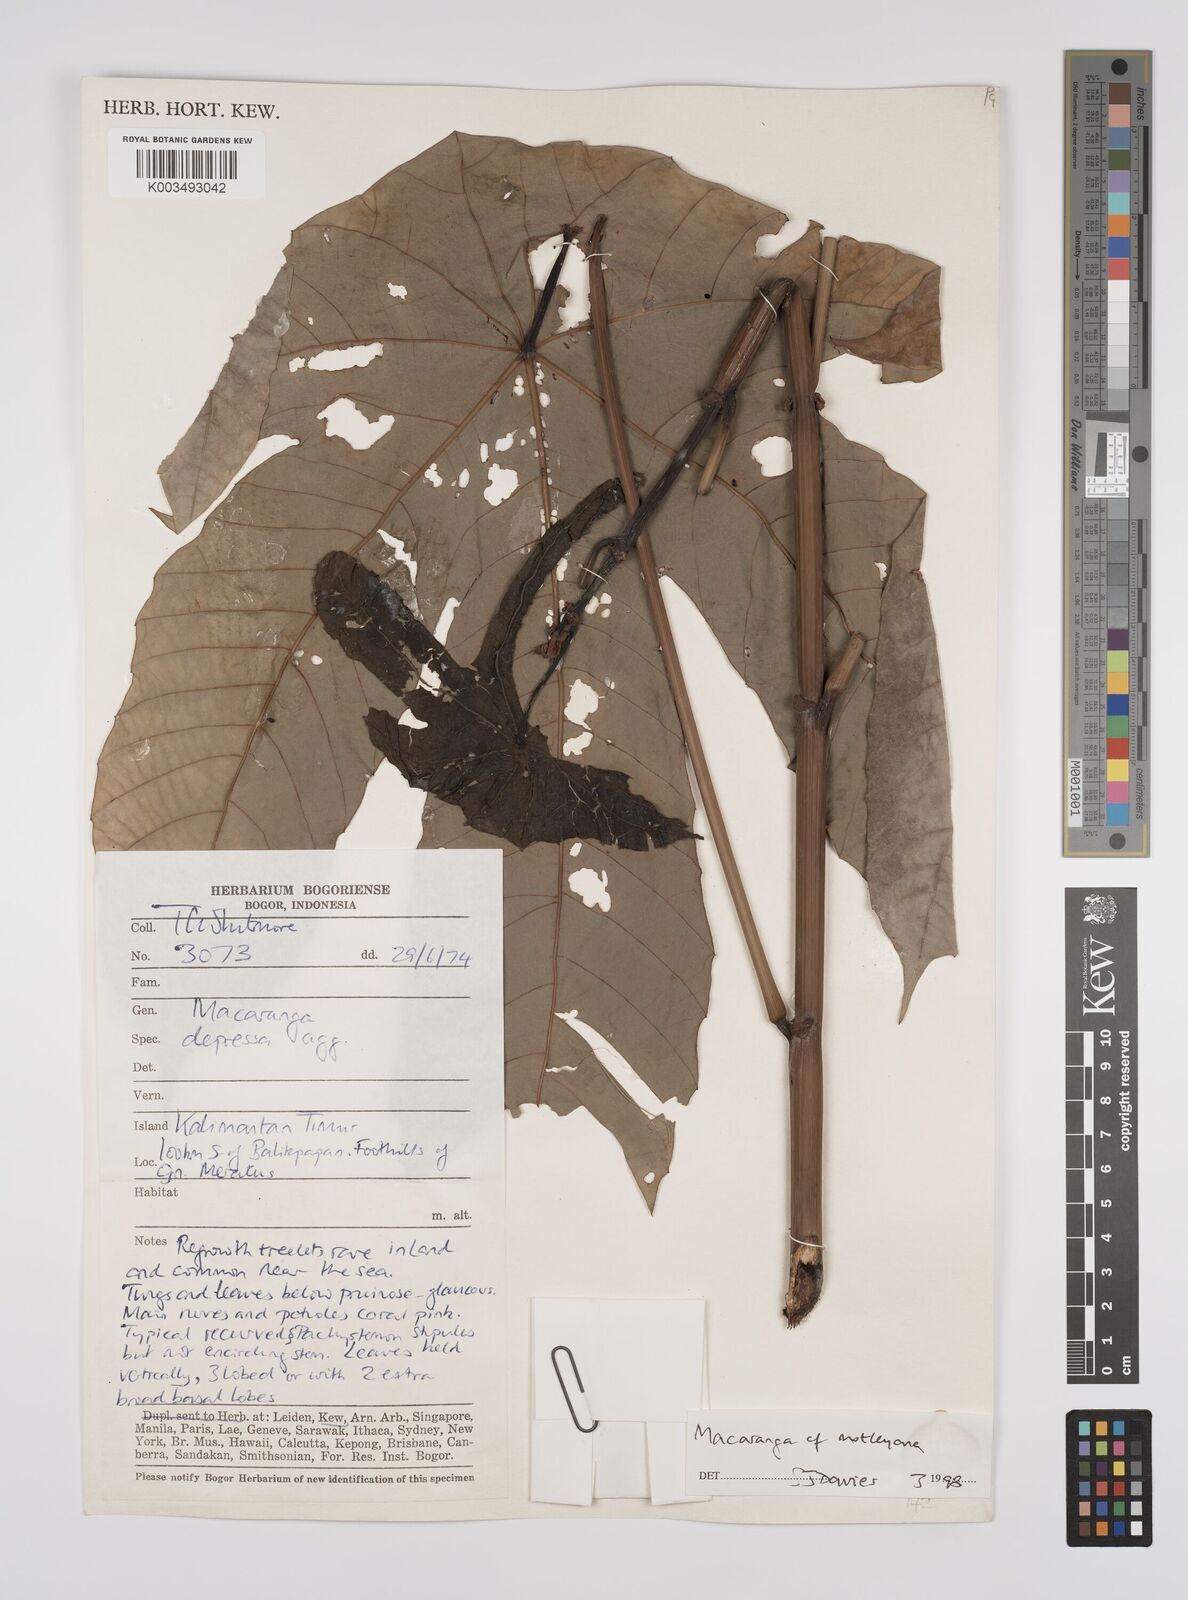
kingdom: Plantae
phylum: Tracheophyta
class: Magnoliopsida
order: Malpighiales
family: Euphorbiaceae
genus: Macaranga
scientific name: Macaranga motleyana
